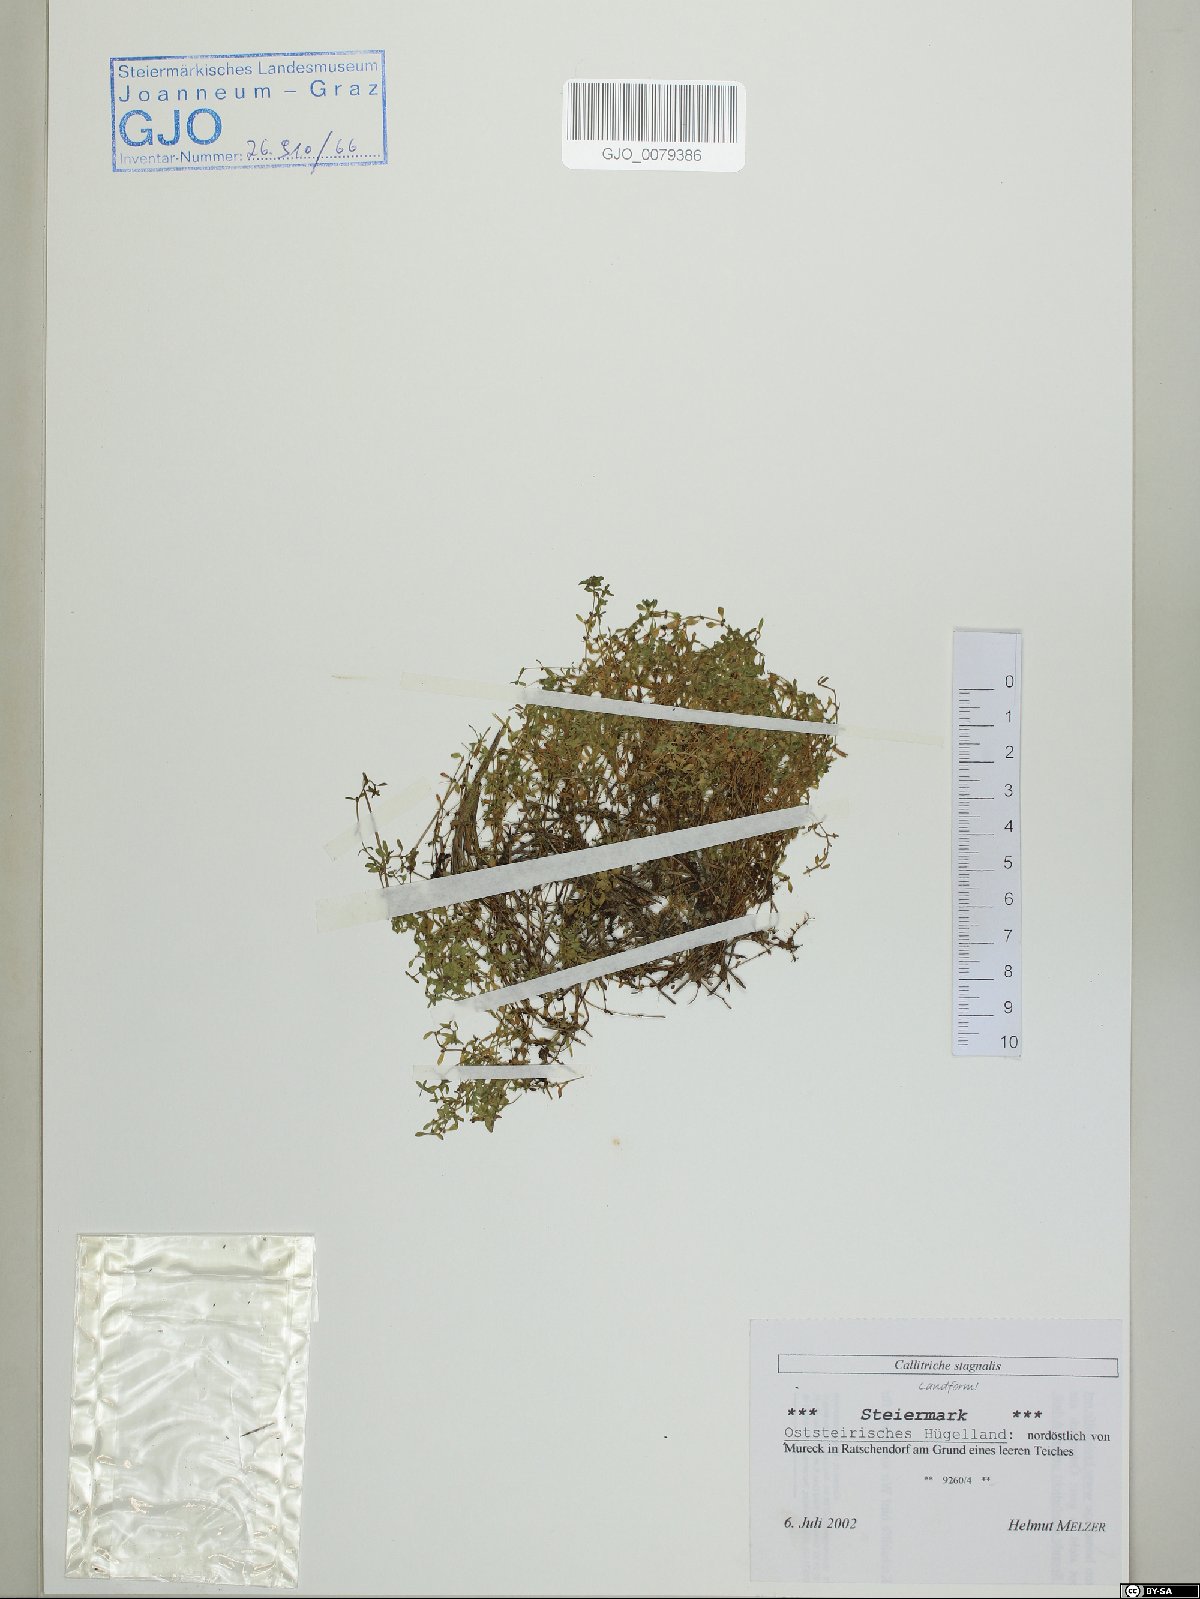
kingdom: Plantae
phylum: Tracheophyta
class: Magnoliopsida
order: Lamiales
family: Plantaginaceae
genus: Callitriche
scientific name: Callitriche stagnalis
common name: Common water-starwort
